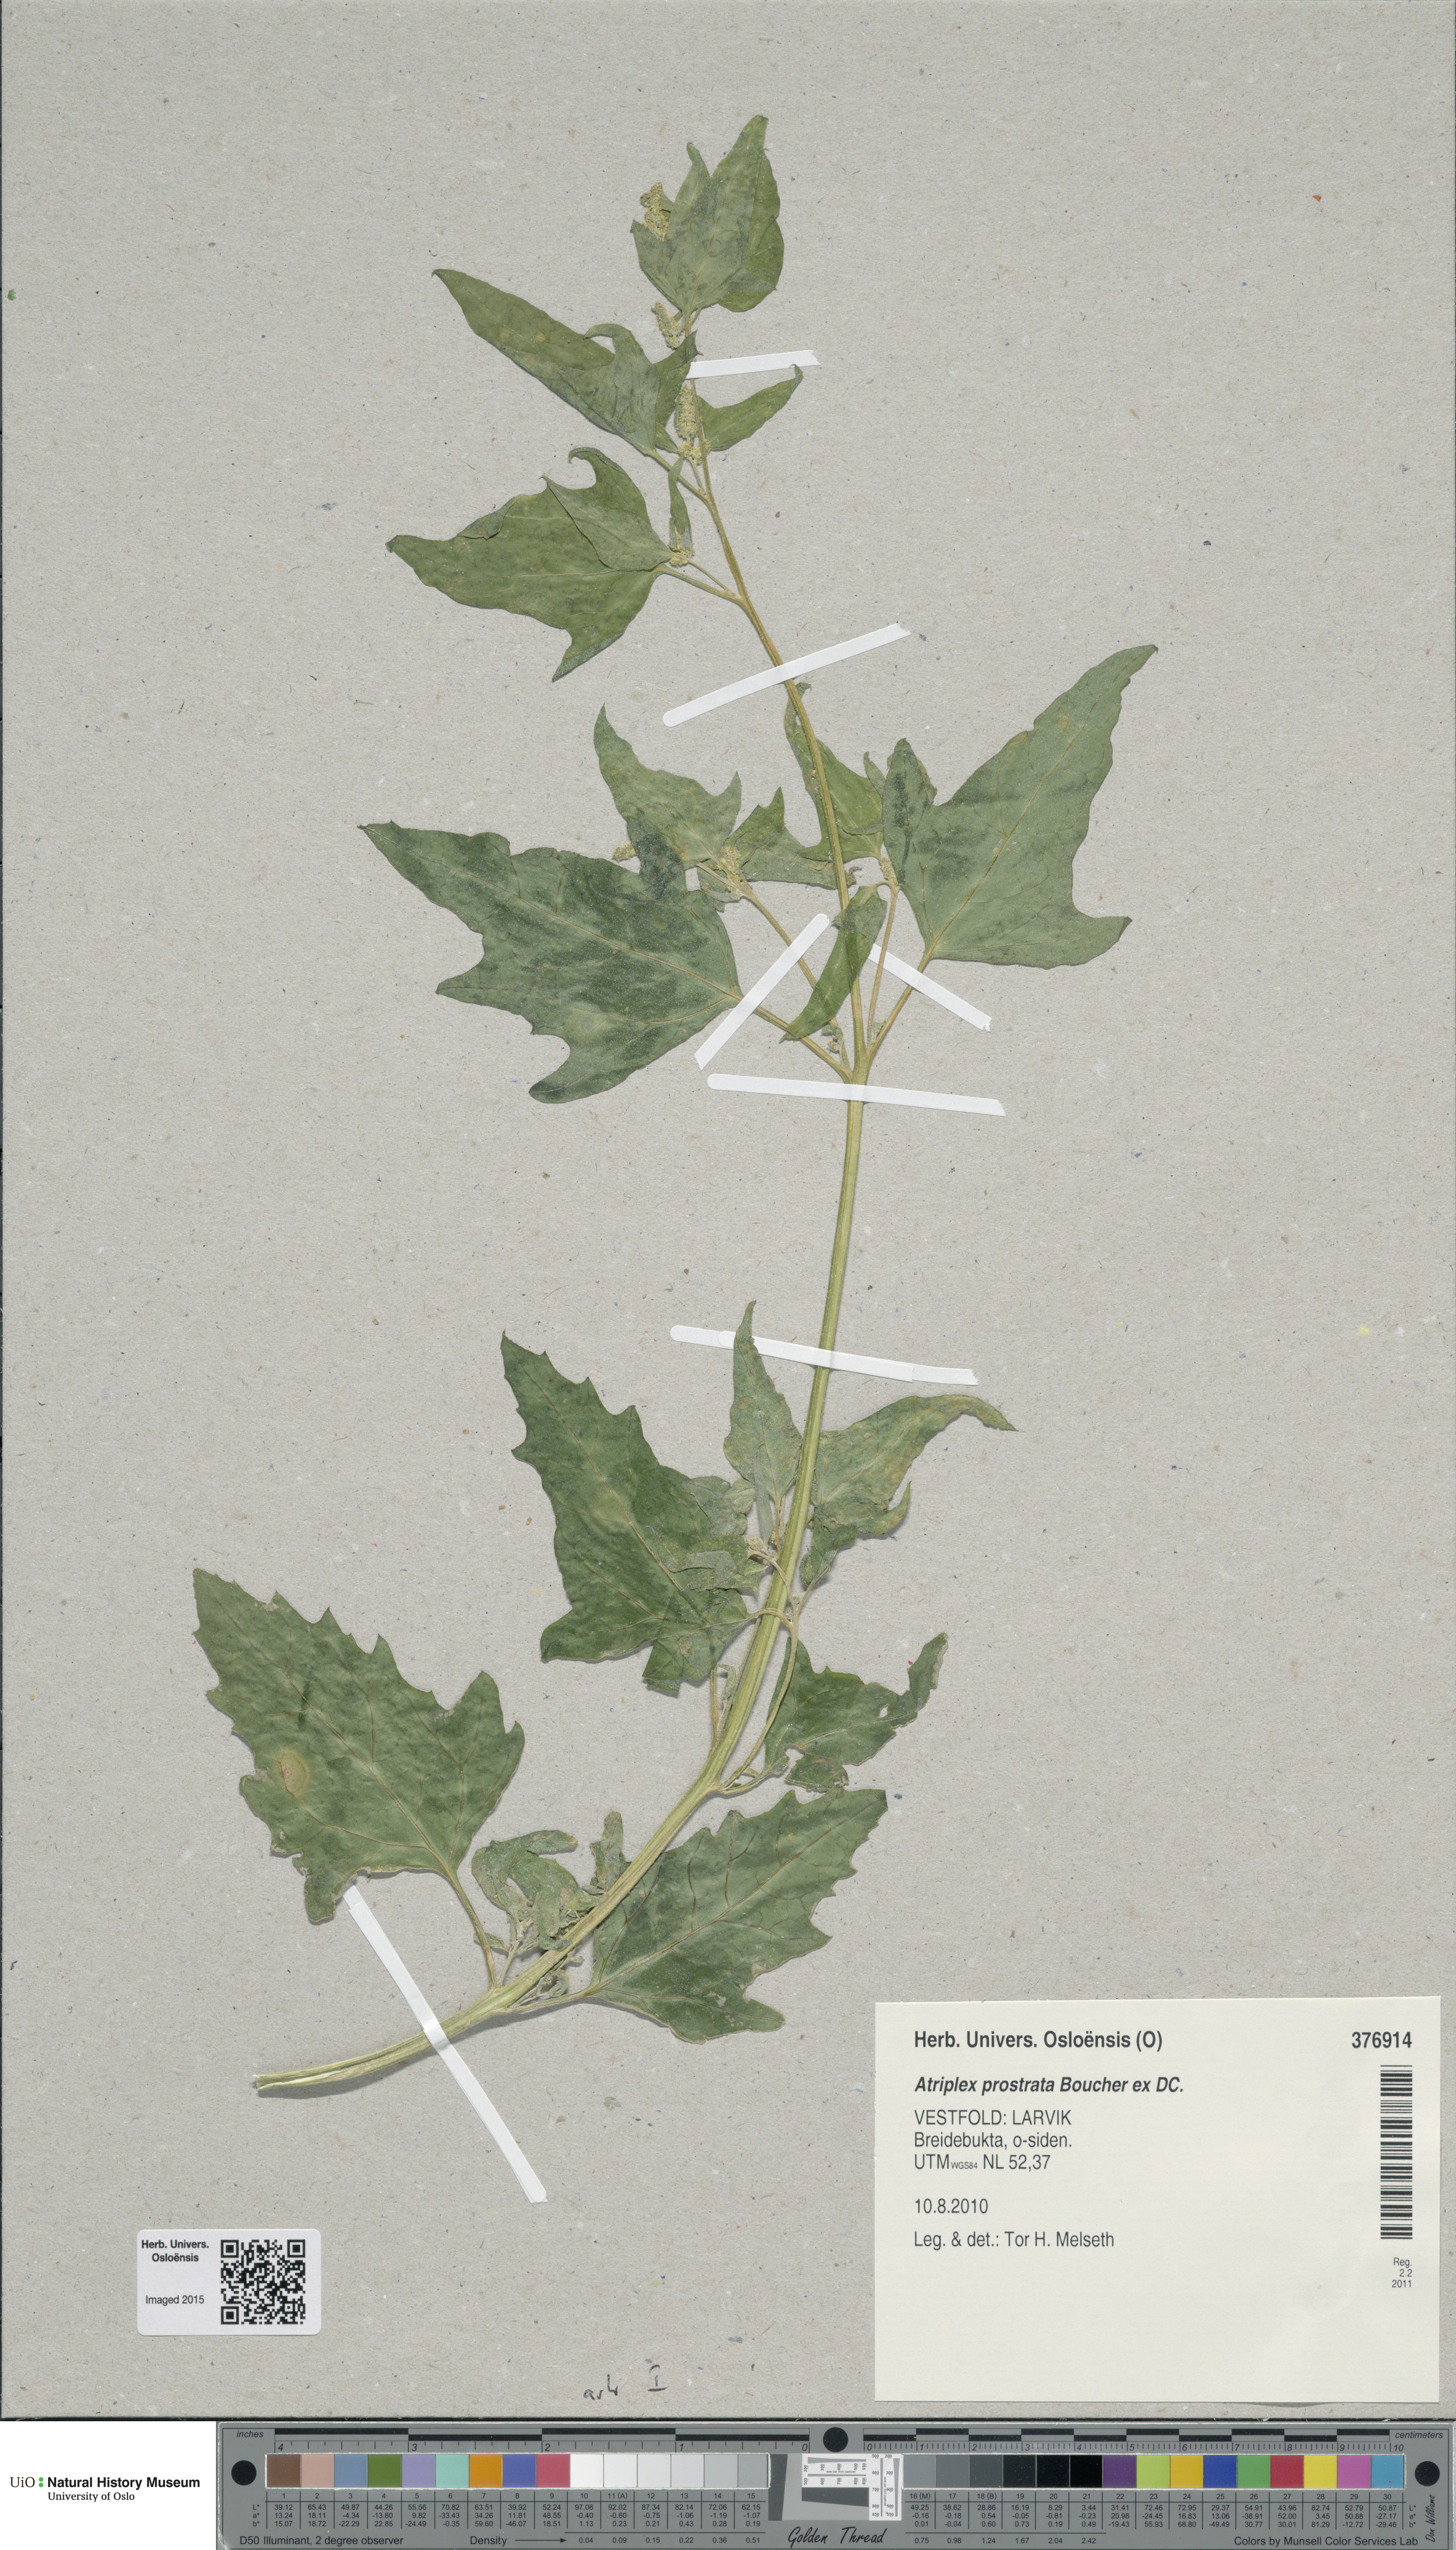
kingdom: Plantae
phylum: Tracheophyta
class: Magnoliopsida
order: Caryophyllales
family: Amaranthaceae
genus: Atriplex
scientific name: Atriplex prostrata
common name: Spear-leaved orache
